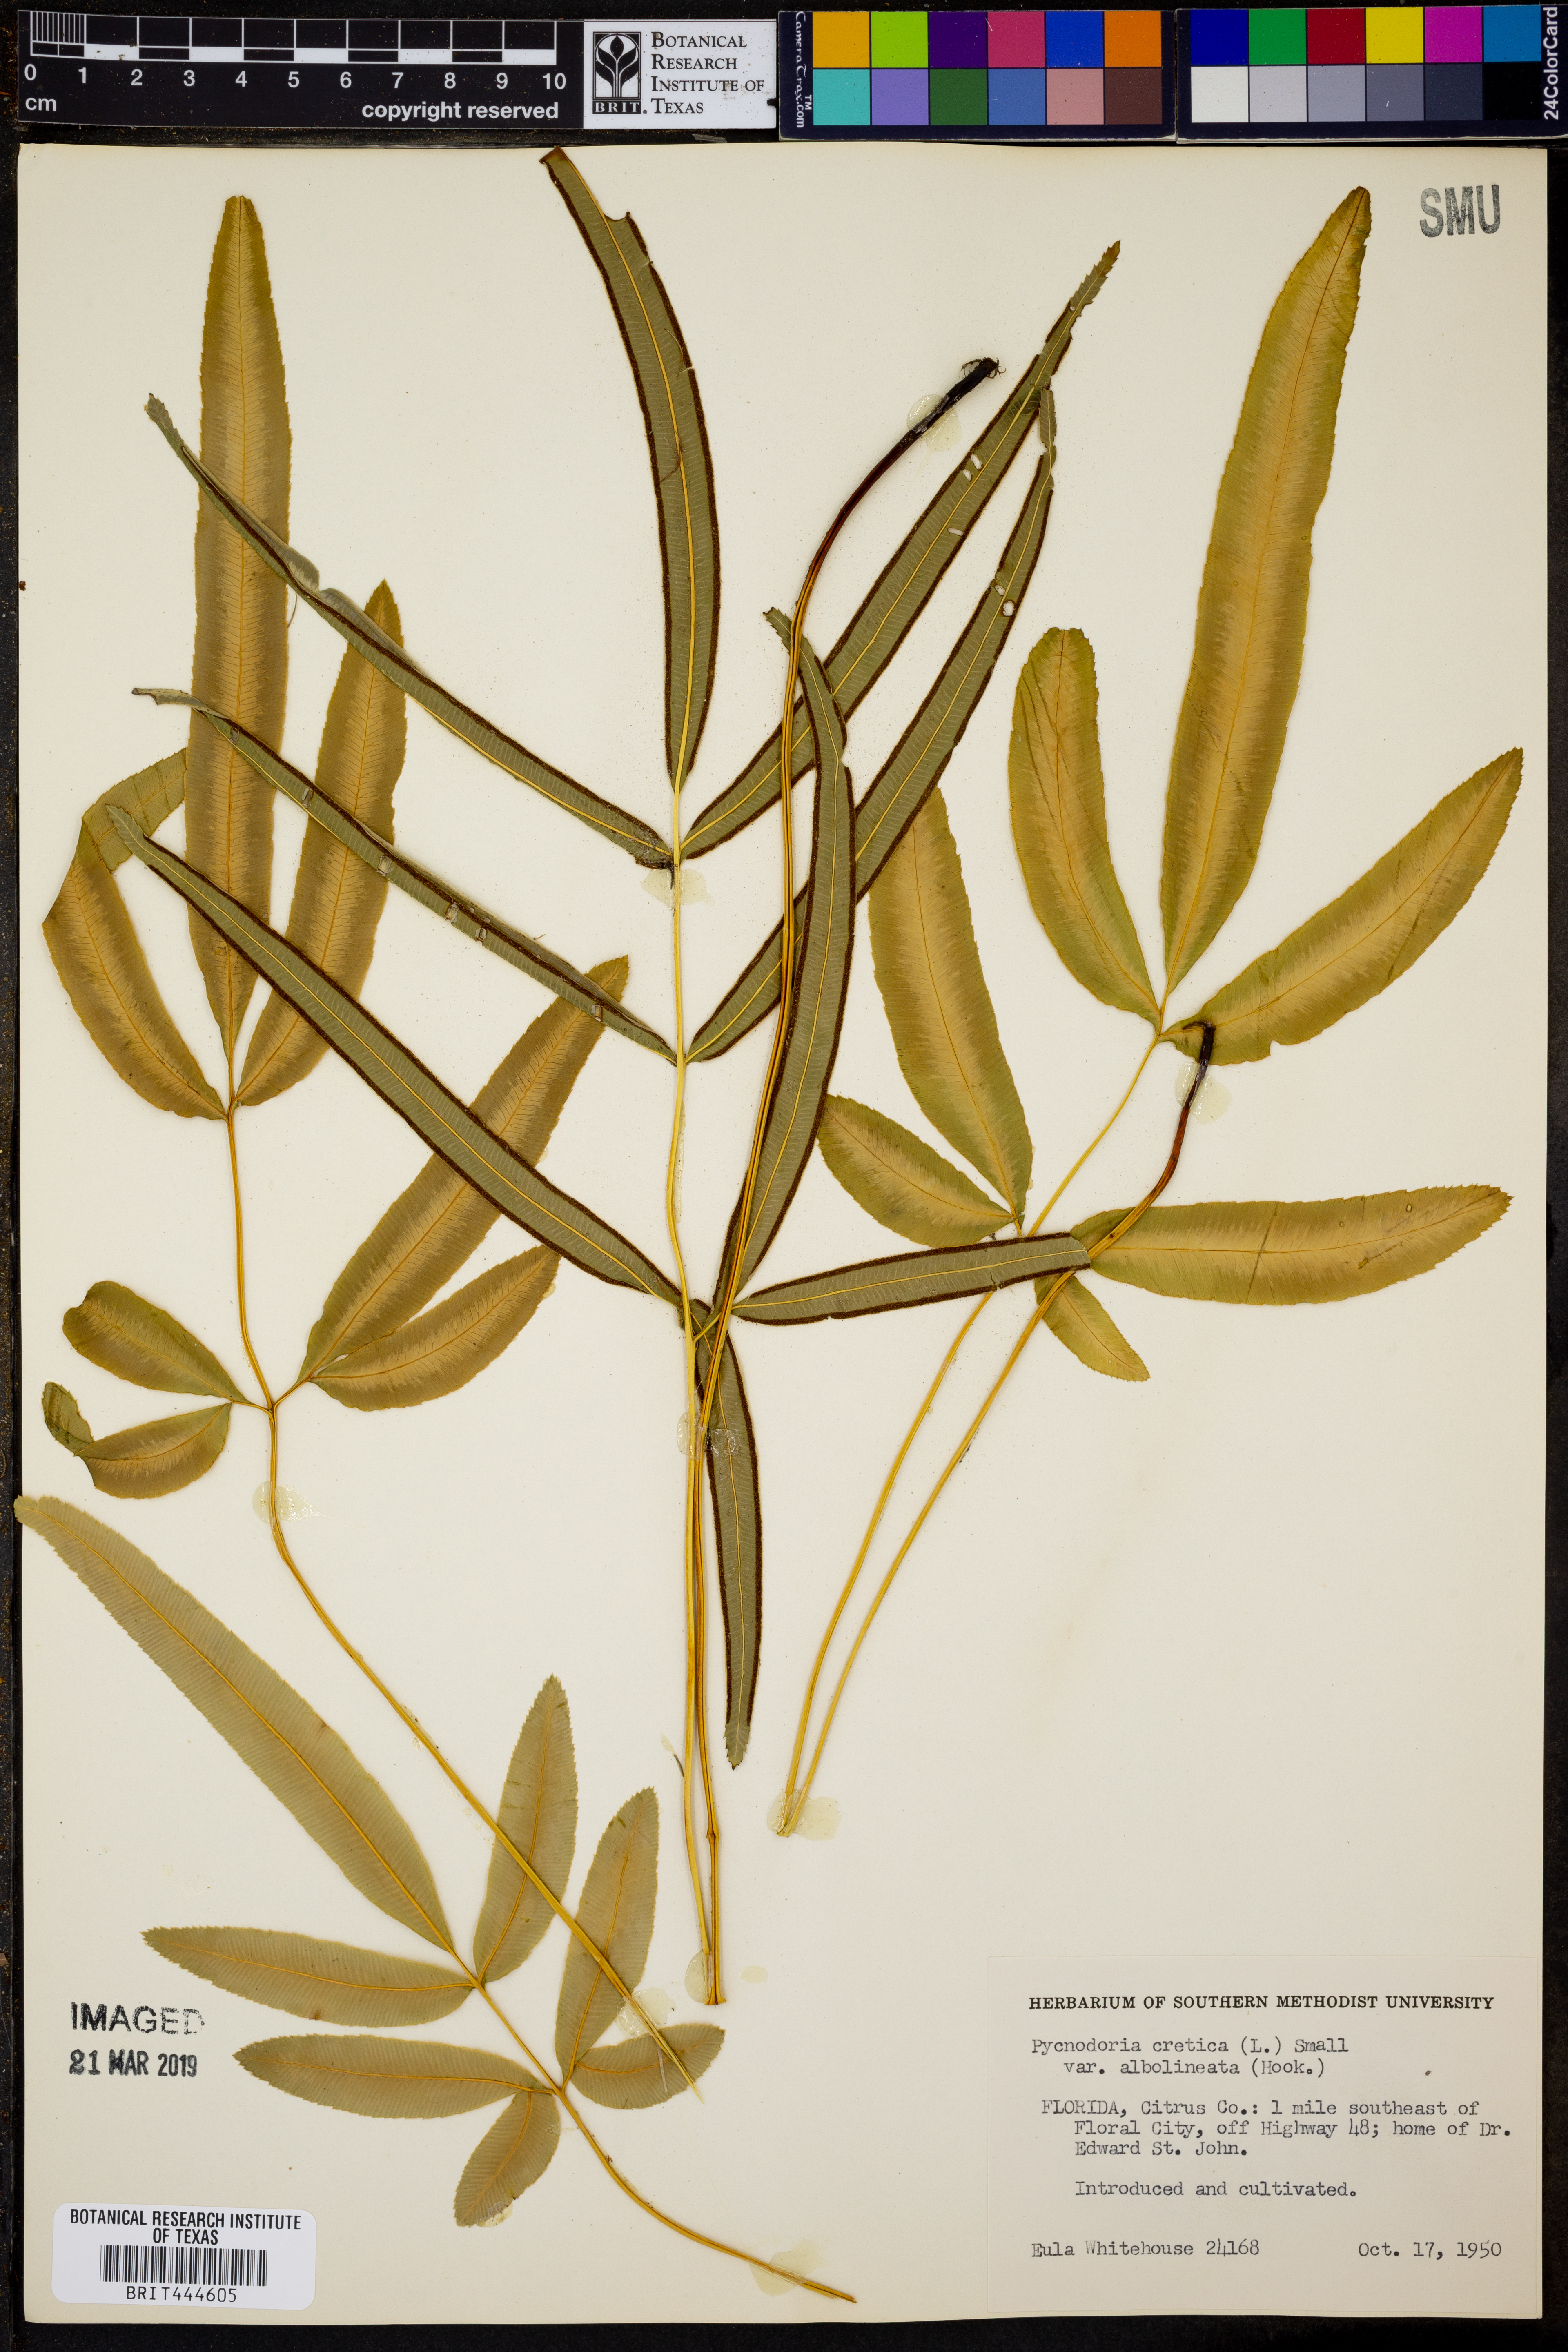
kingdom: Plantae
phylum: Tracheophyta
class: Polypodiopsida
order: Polypodiales
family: Pteridaceae
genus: Pteris
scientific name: Pteris cretica
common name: Ribbon fern
